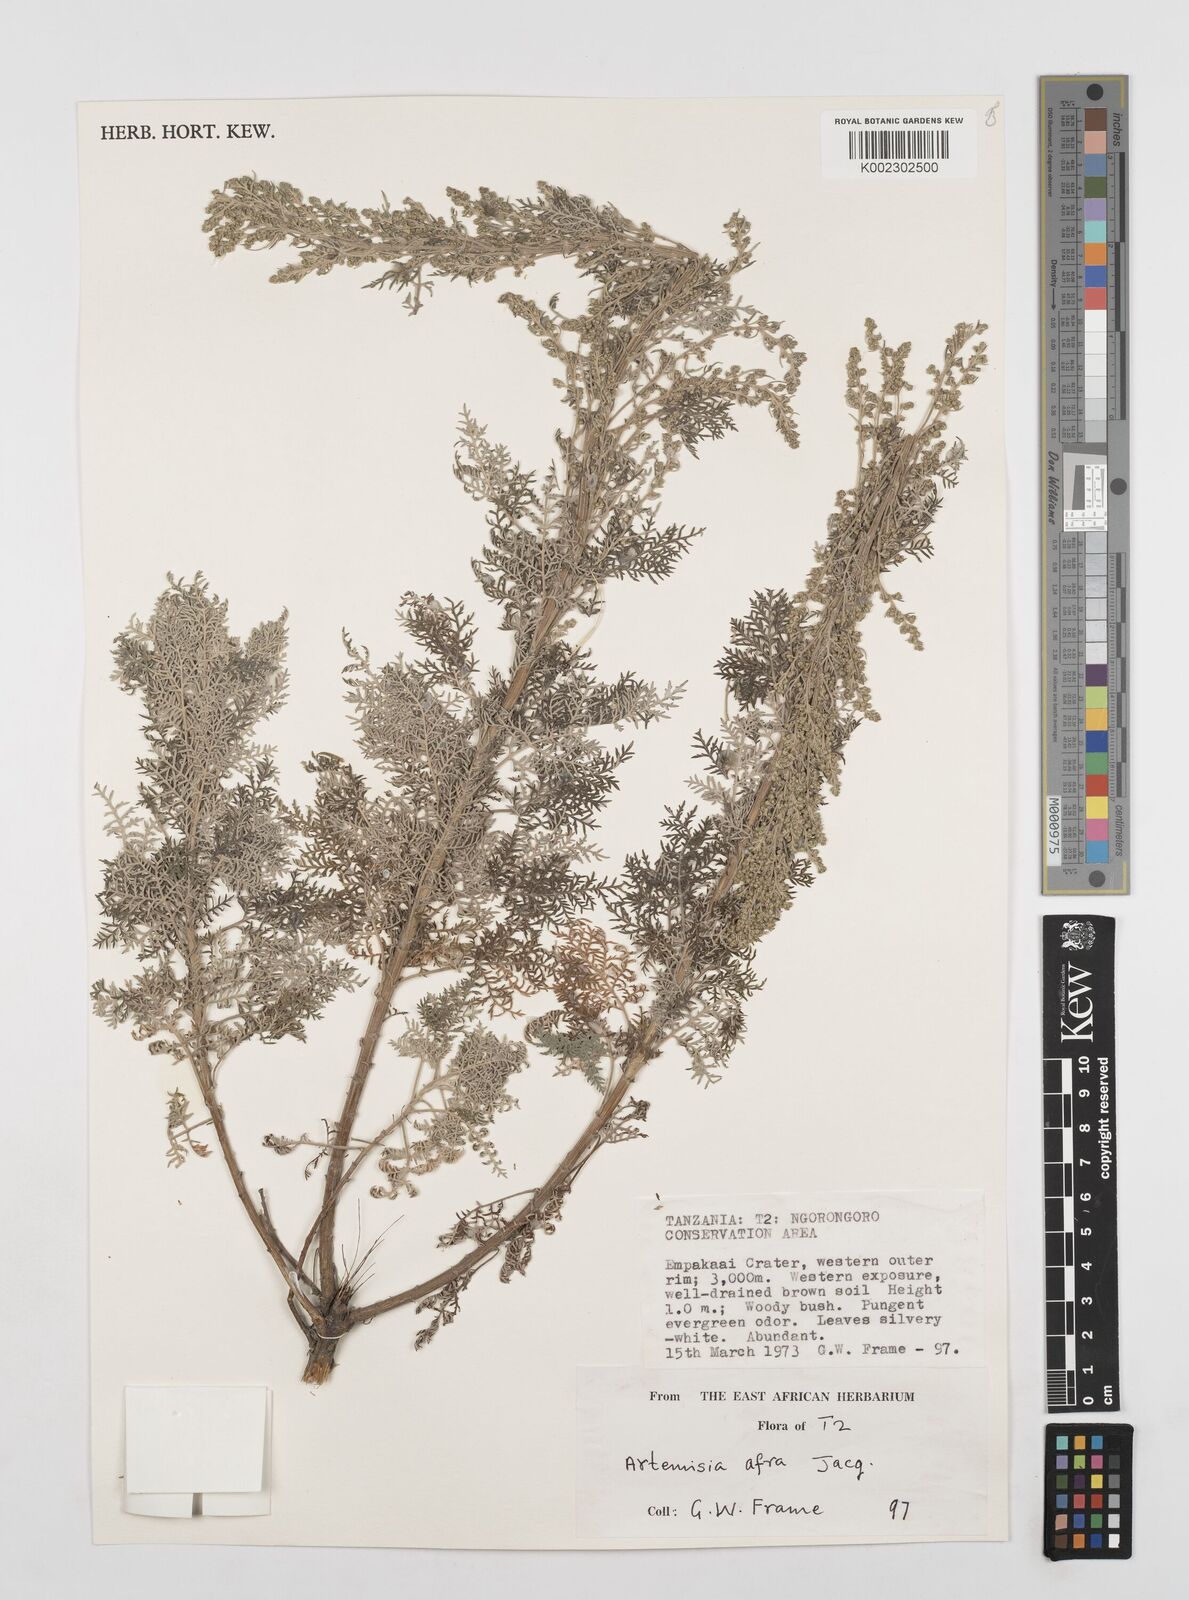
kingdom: Plantae
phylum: Tracheophyta
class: Magnoliopsida
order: Asterales
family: Asteraceae
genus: Artemisia
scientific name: Artemisia afra
